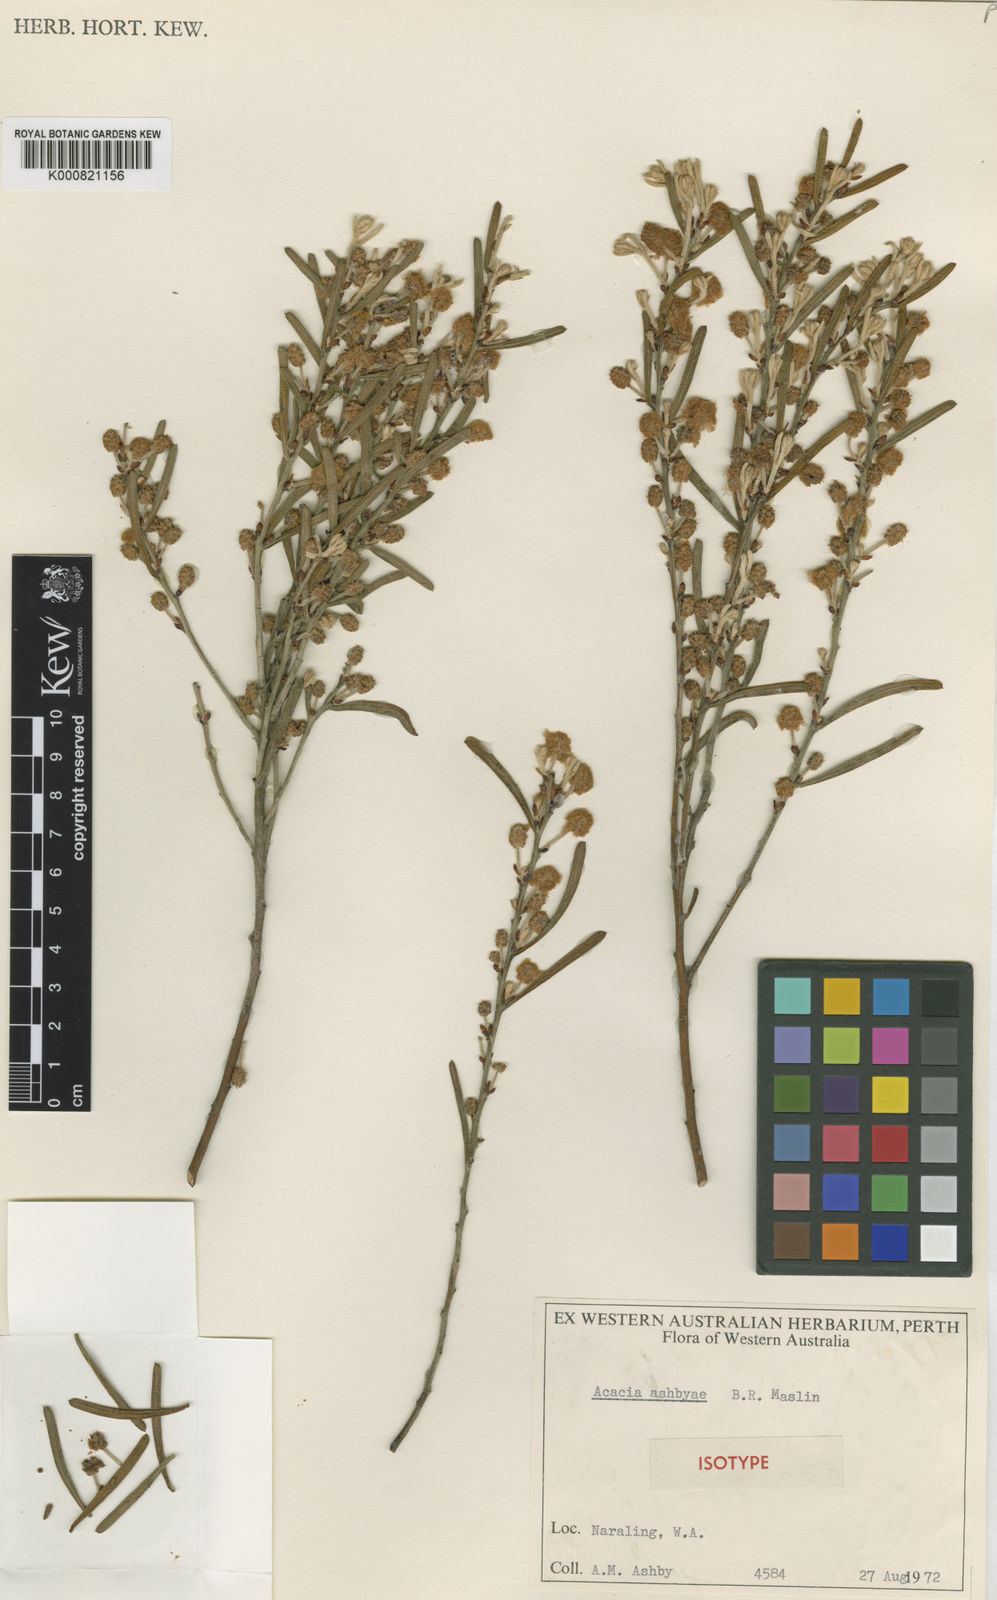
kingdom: Plantae
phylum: Tracheophyta
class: Magnoliopsida
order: Fabales
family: Fabaceae
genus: Acacia
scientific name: Acacia ashbyae
